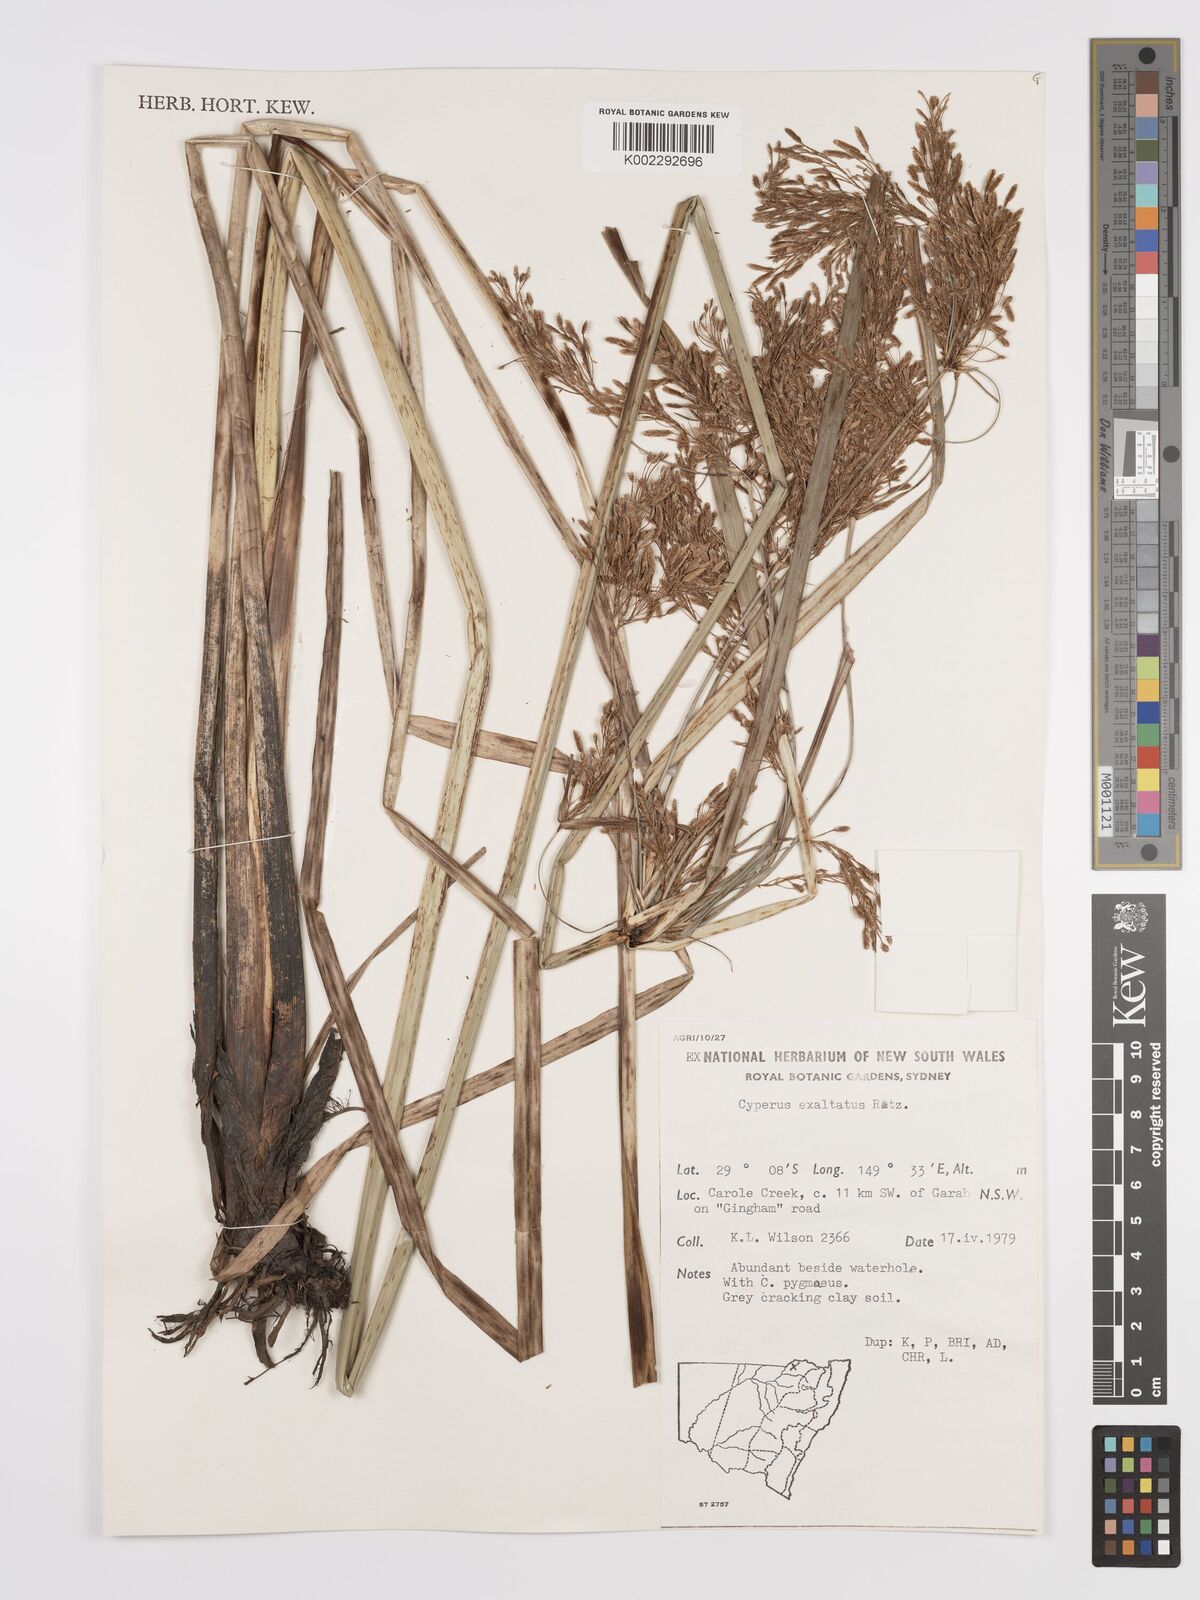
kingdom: Plantae
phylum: Tracheophyta
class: Liliopsida
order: Poales
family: Cyperaceae
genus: Cyperus
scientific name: Cyperus exaltatus
